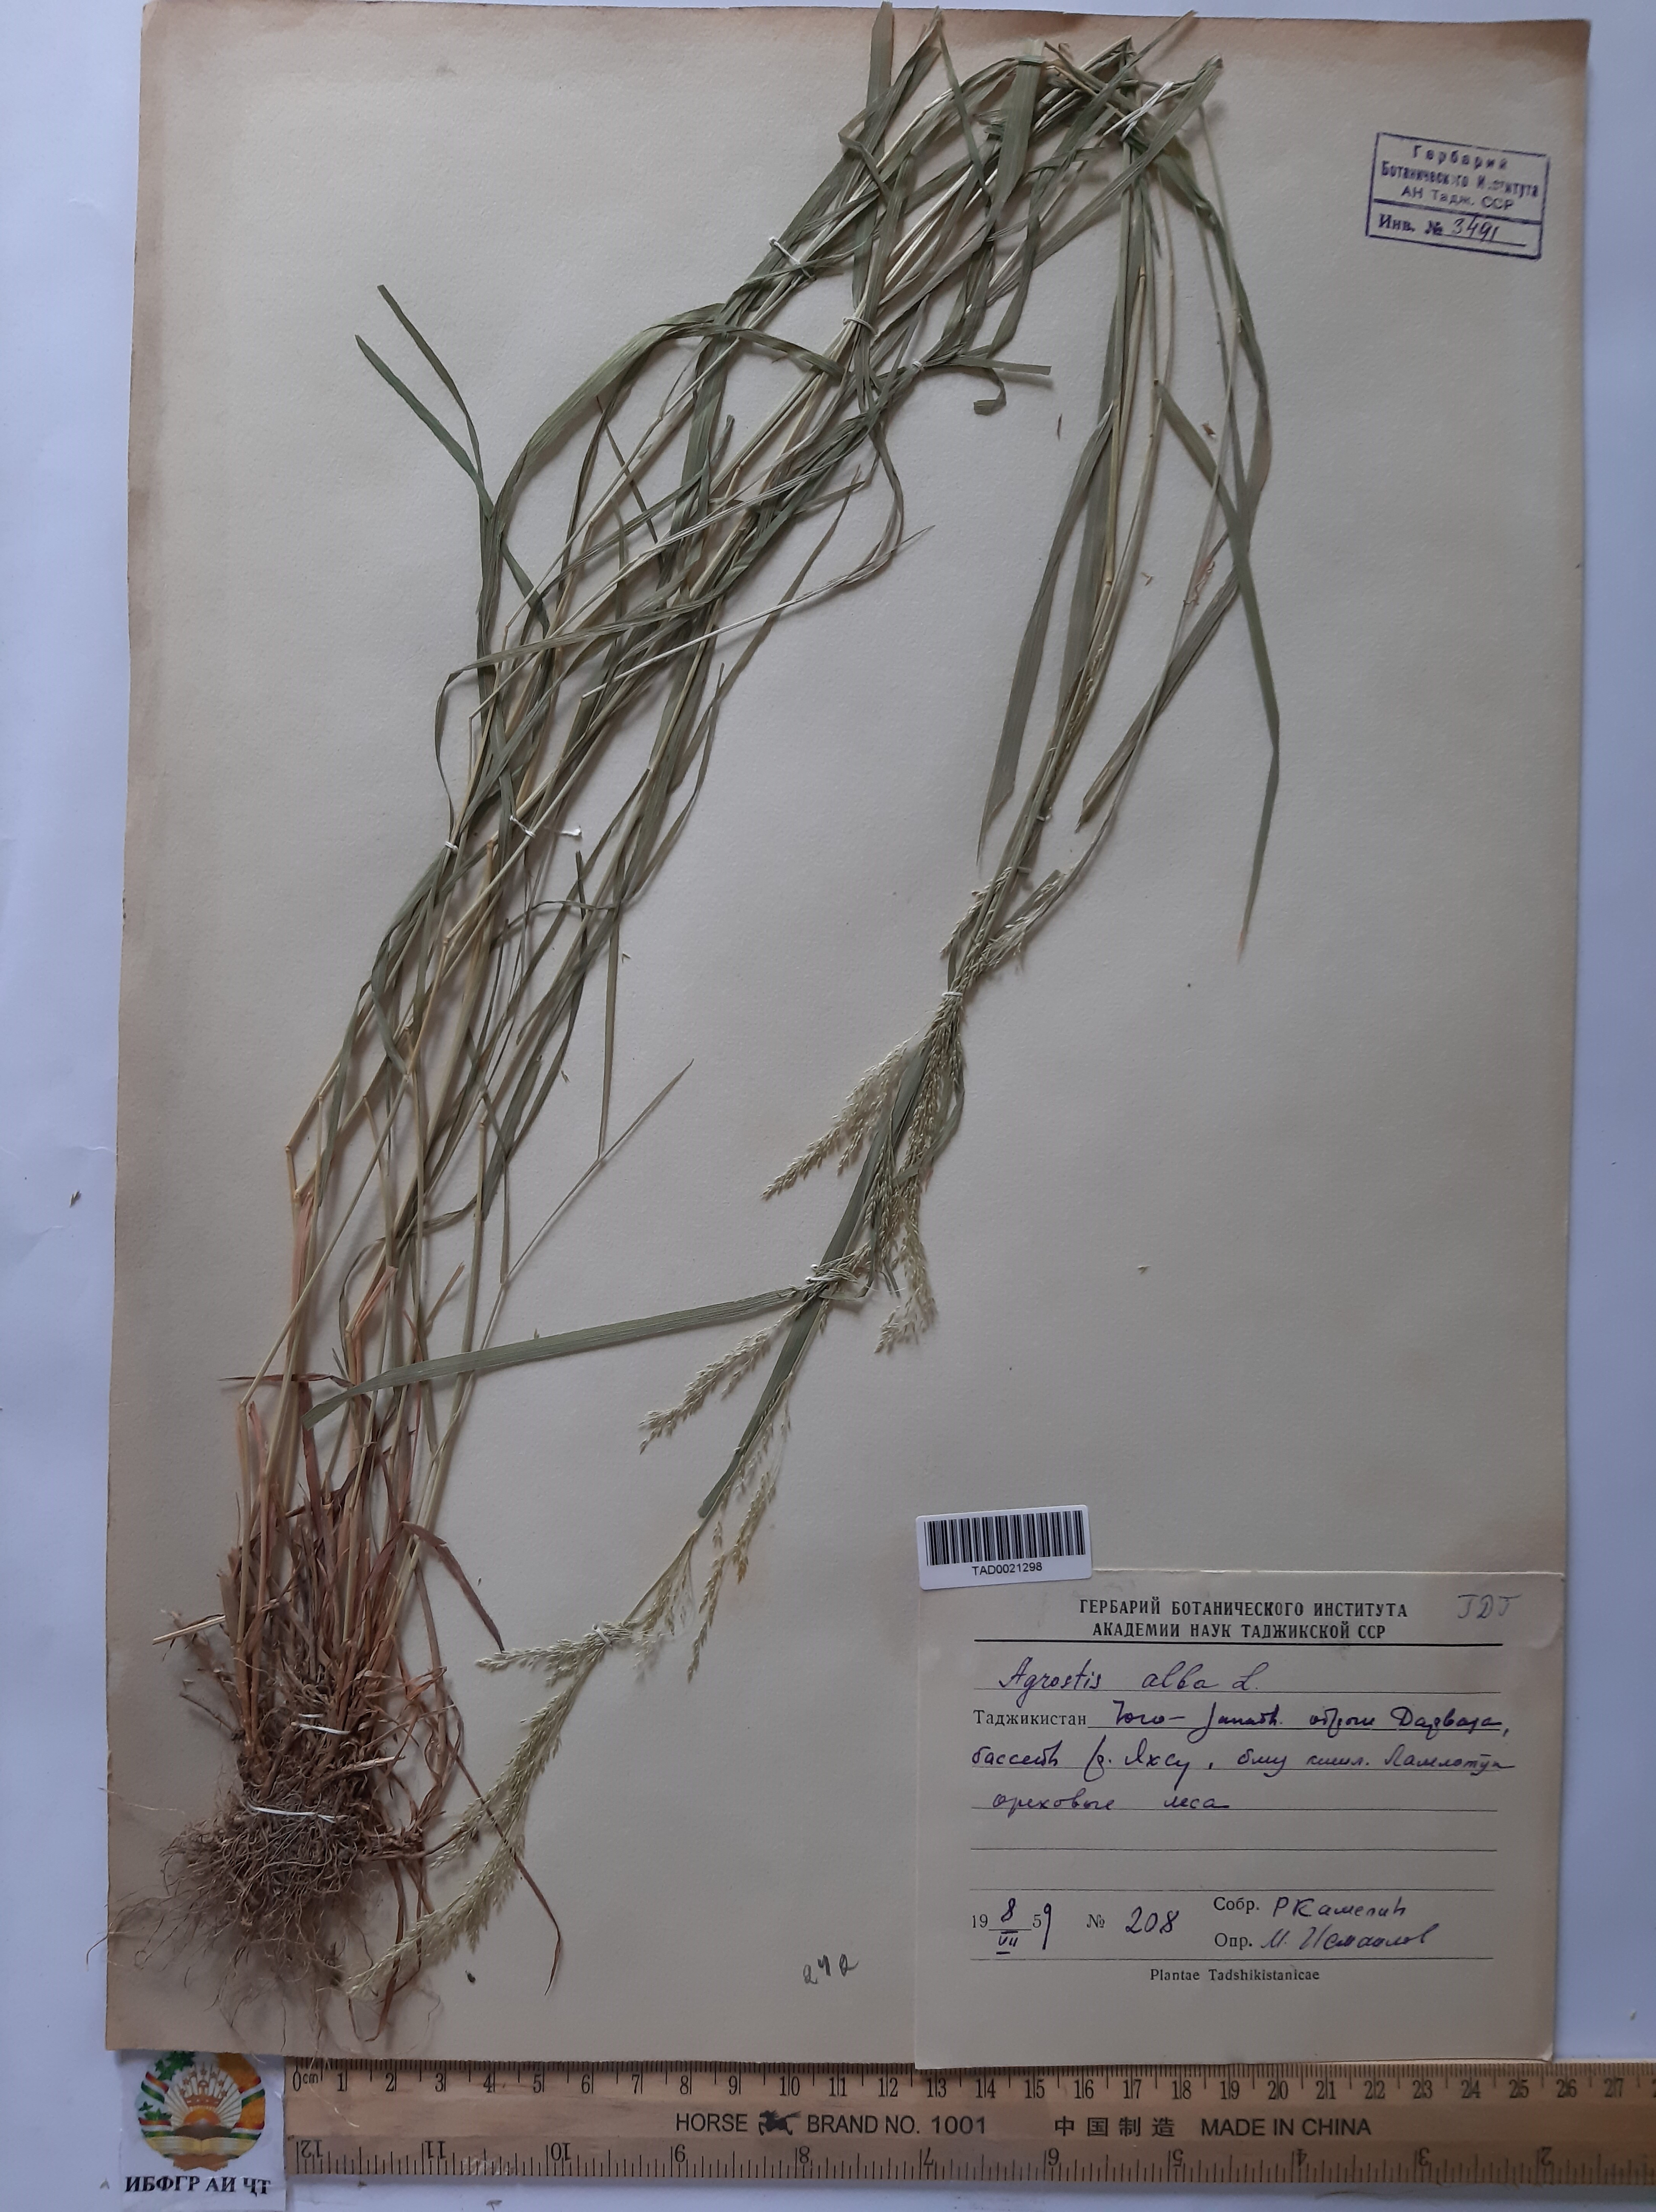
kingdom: Plantae
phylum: Tracheophyta
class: Liliopsida
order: Poales
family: Poaceae
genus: Poa
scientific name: Poa nemoralis
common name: Wood bluegrass
